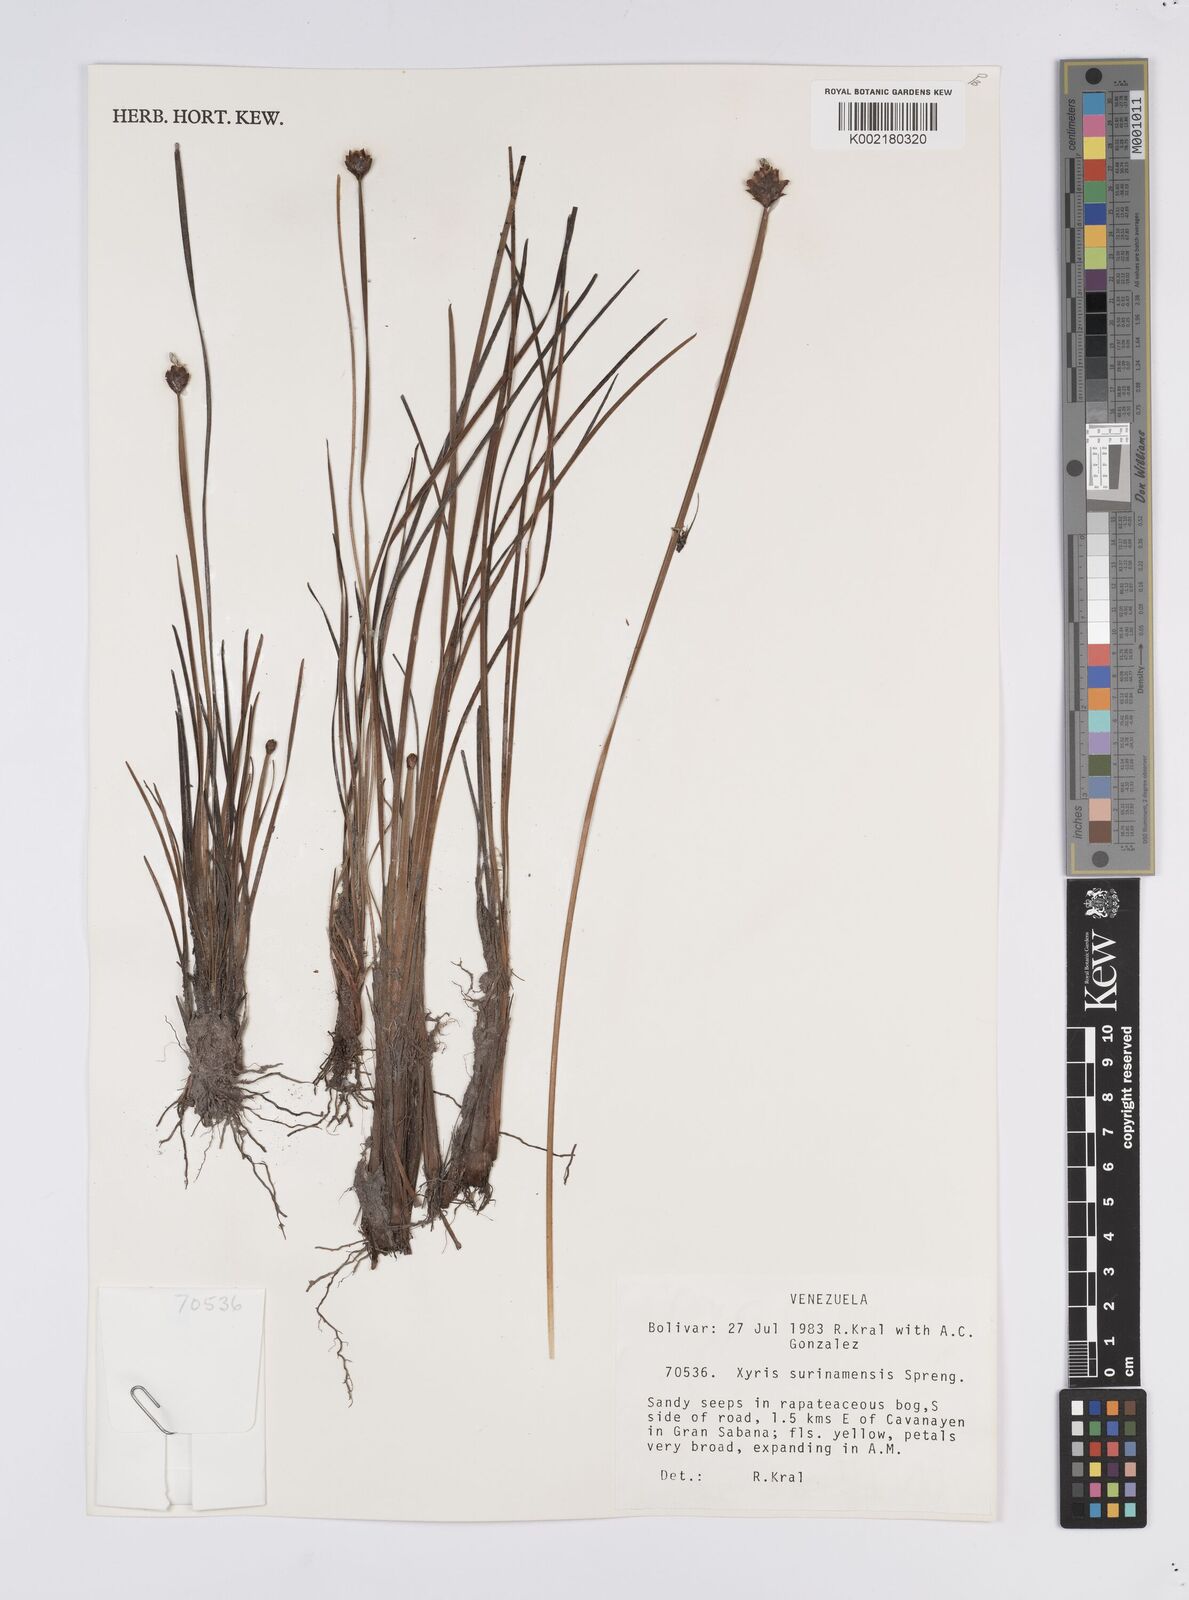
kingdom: Plantae
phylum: Tracheophyta
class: Liliopsida
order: Poales
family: Xyridaceae
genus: Xyris
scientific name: Xyris surinamensis
